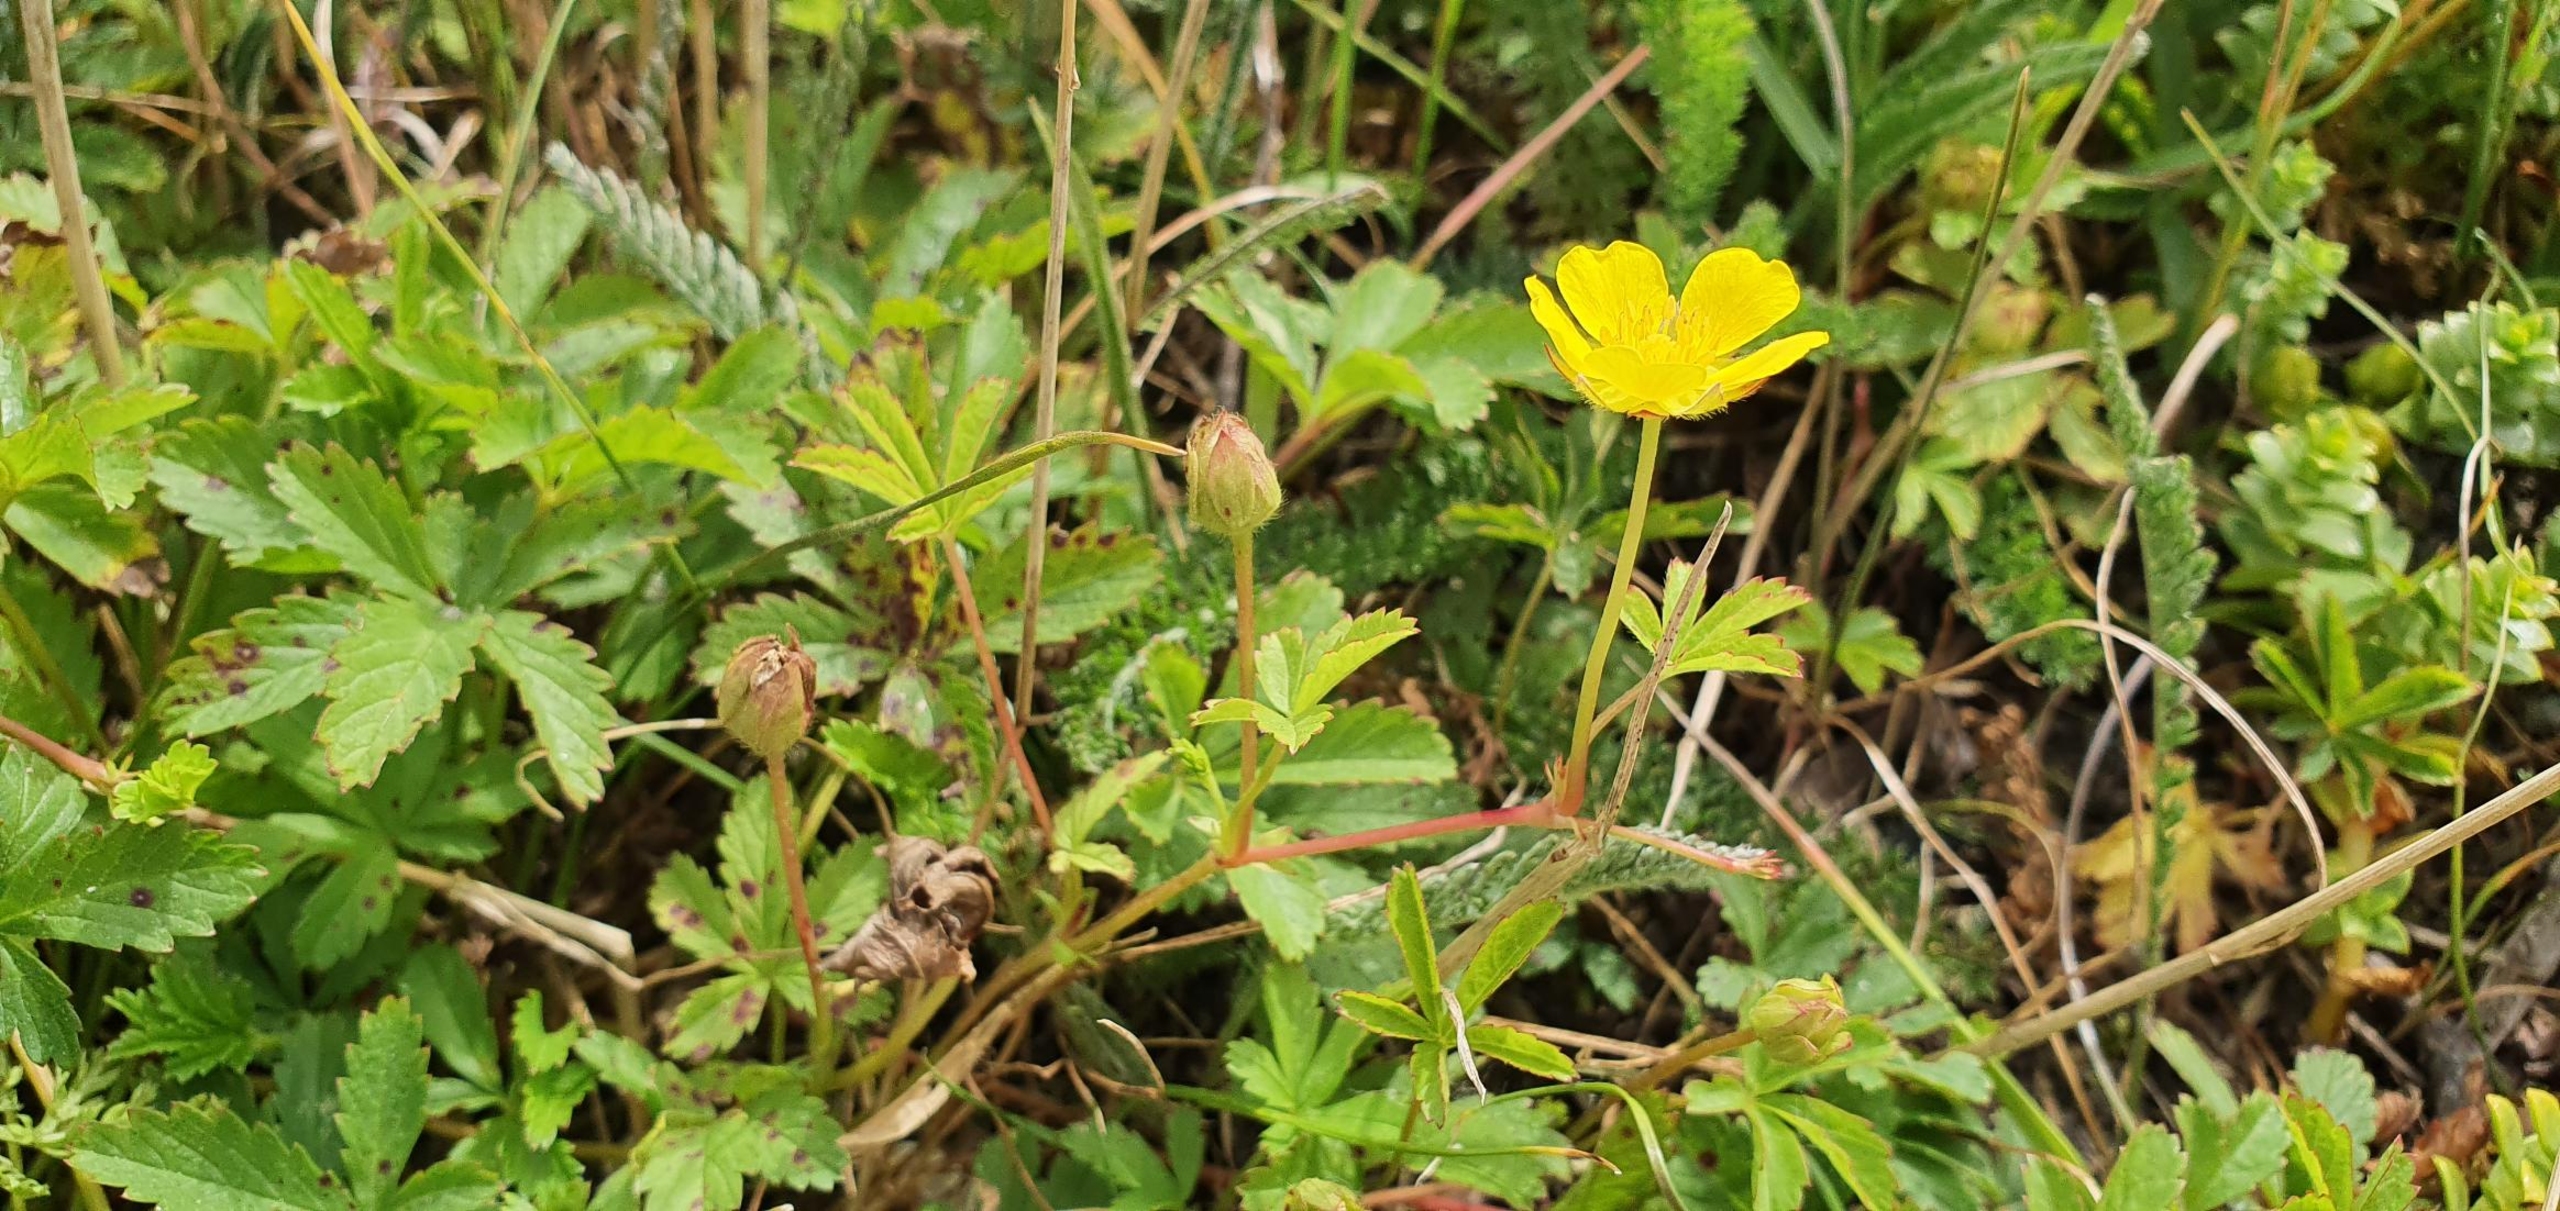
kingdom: Plantae
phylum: Tracheophyta
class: Magnoliopsida
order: Rosales
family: Rosaceae
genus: Potentilla
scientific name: Potentilla reptans
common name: Krybende potentil
